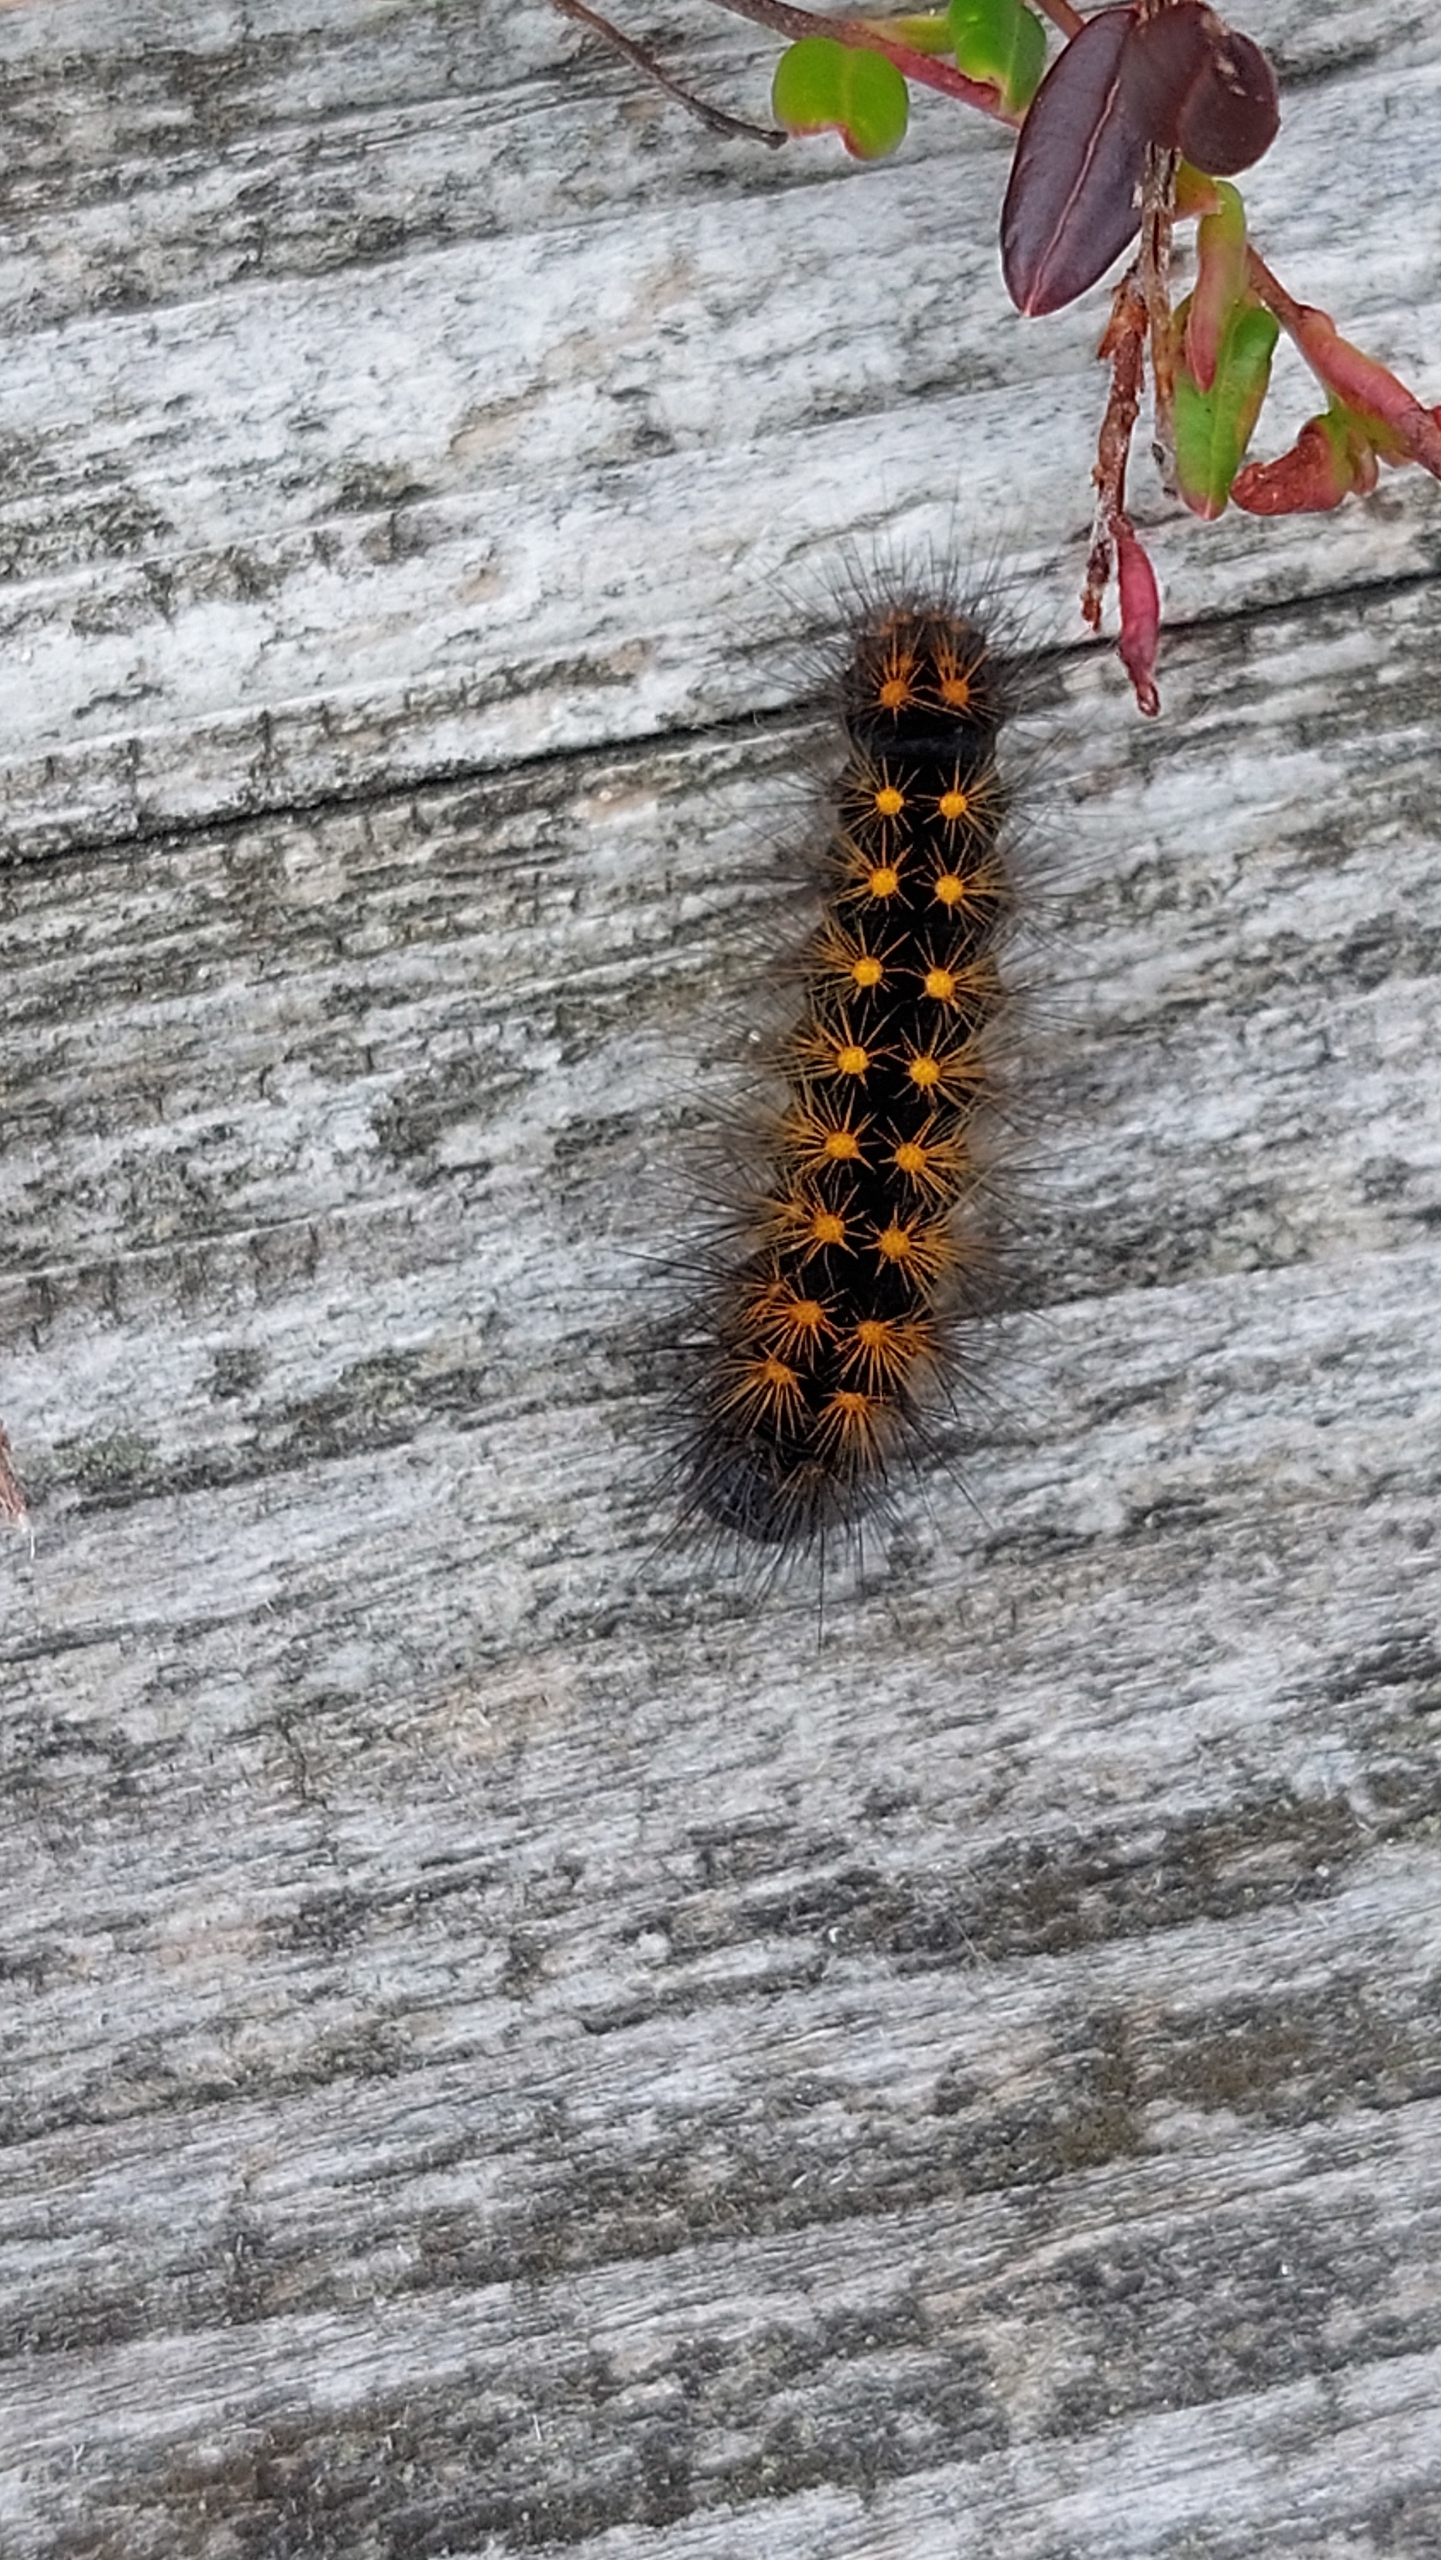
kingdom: Animalia
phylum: Arthropoda
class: Insecta
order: Lepidoptera
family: Noctuidae
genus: Acronicta
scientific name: Acronicta auricoma
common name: Guldlok-pelsugle
